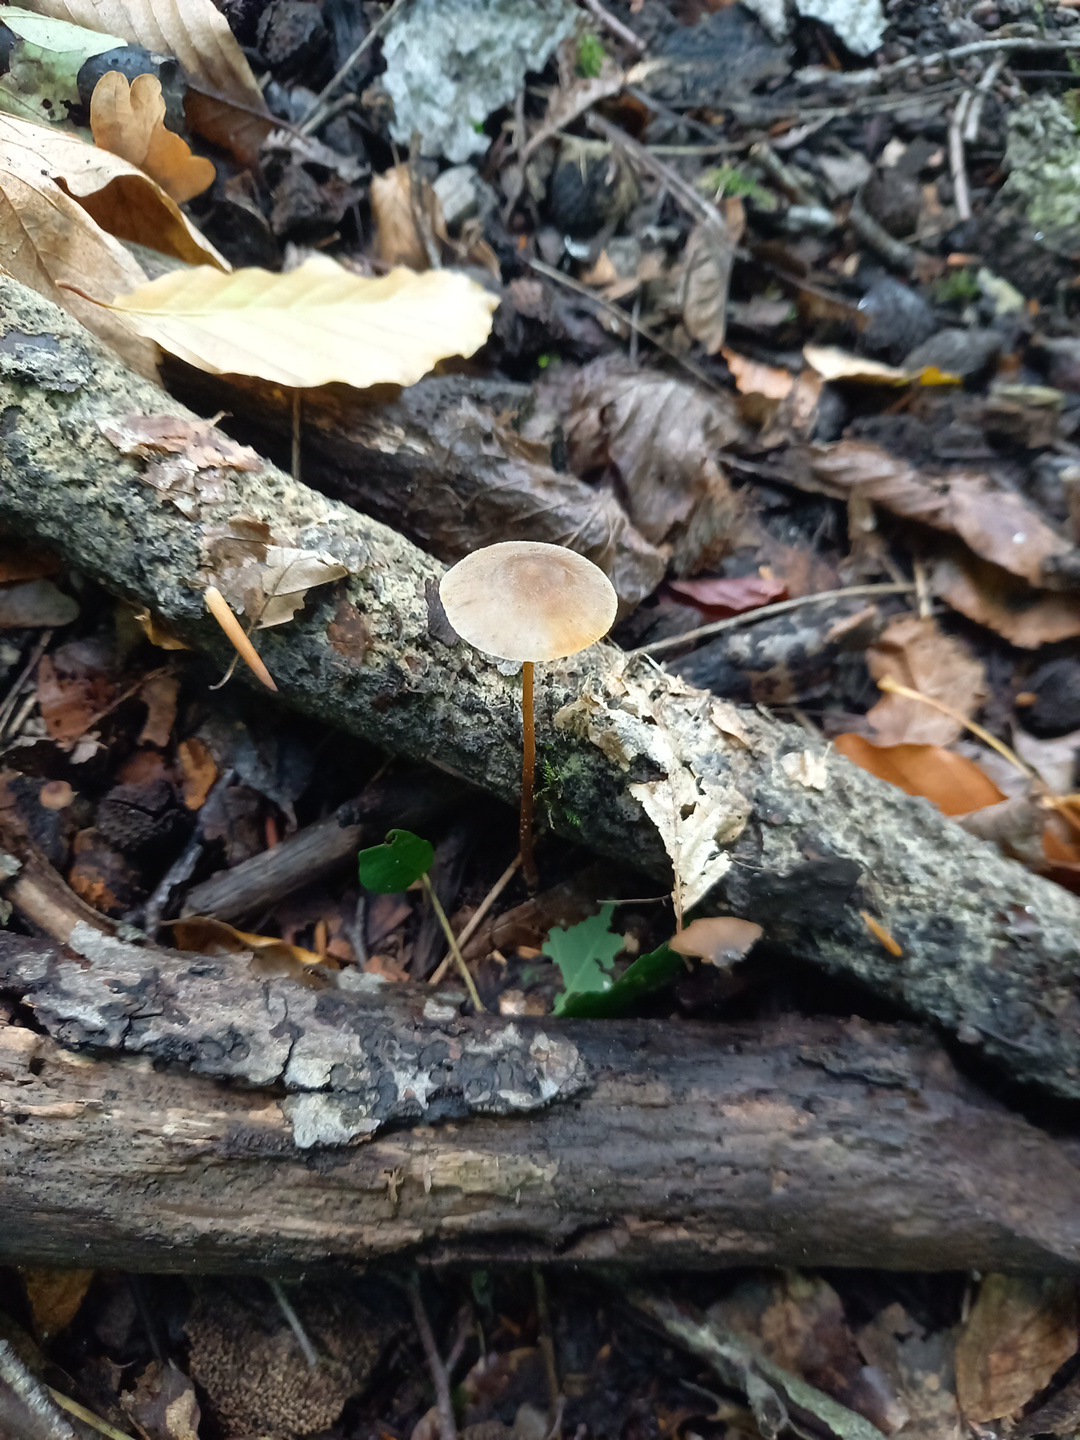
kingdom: Fungi
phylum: Basidiomycota
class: Agaricomycetes
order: Agaricales
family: Mycenaceae
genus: Mycena
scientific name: Mycena crocata
